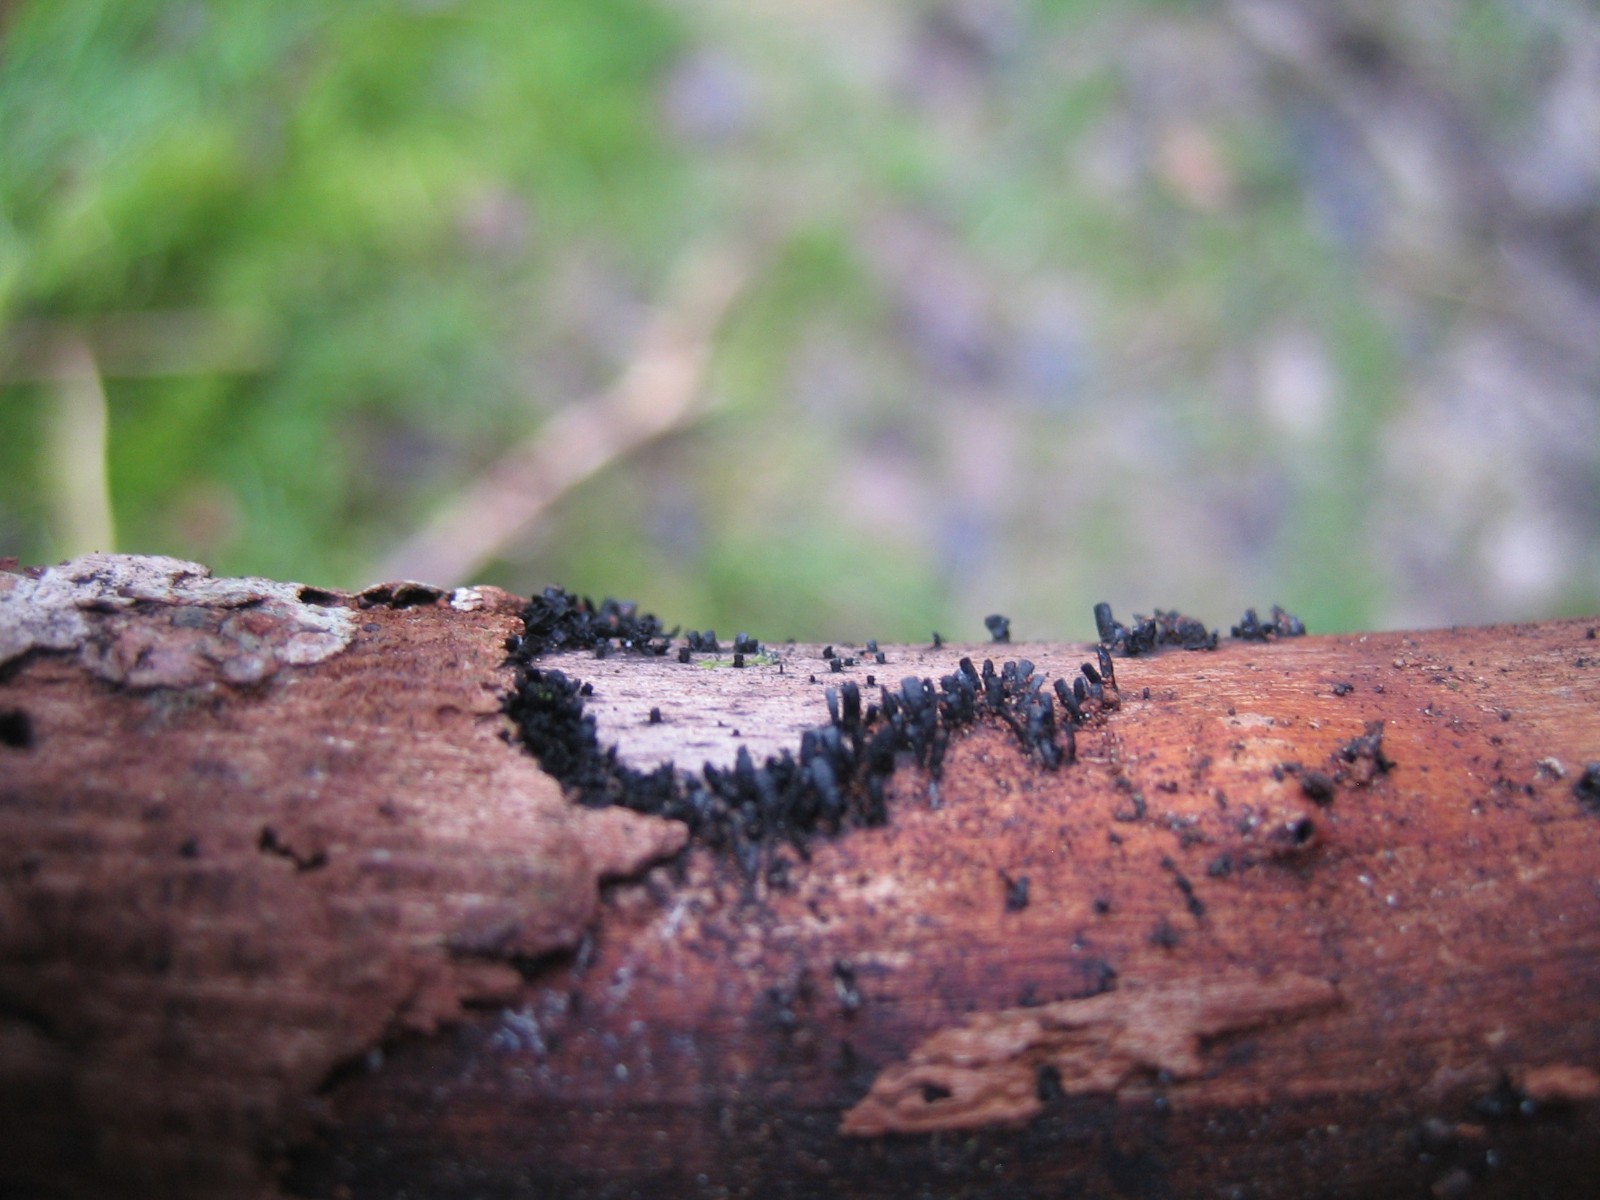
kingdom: Fungi
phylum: Ascomycota
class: Eurotiomycetes
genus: Glyphium
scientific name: Glyphium elatum
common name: kuløkse
